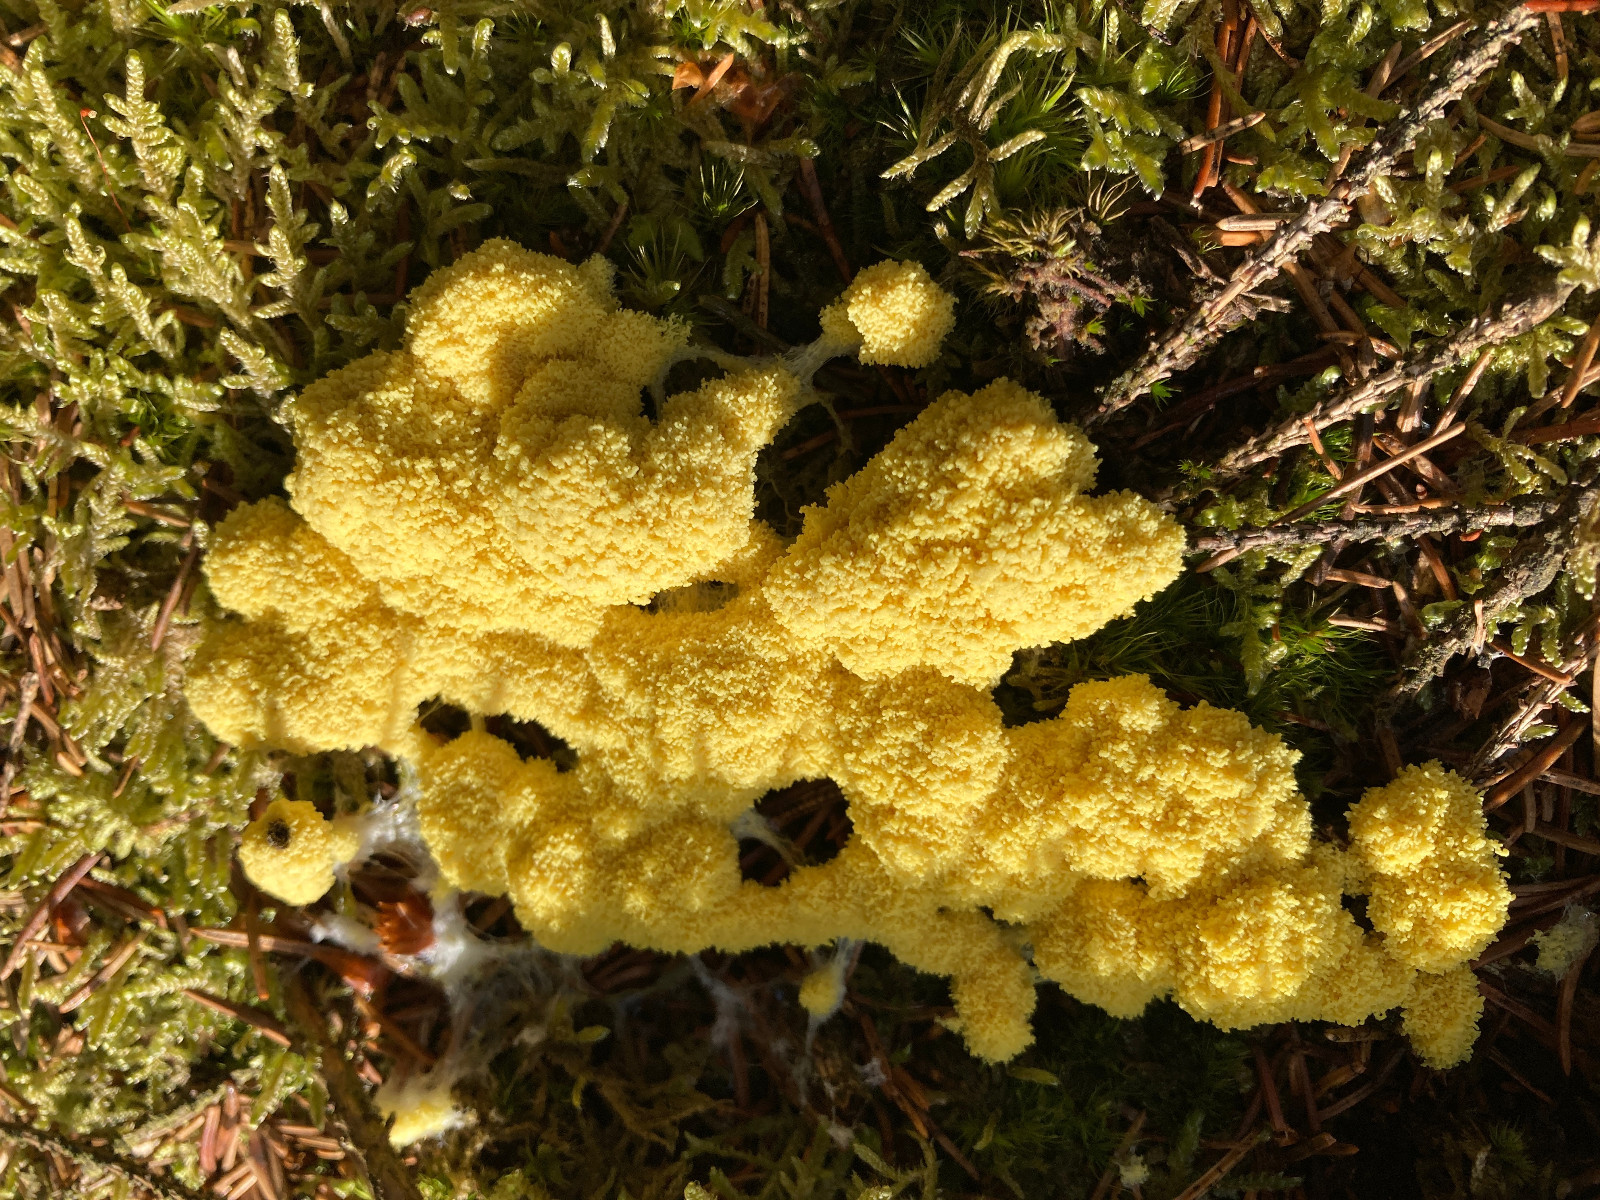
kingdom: Protozoa
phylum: Mycetozoa
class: Myxomycetes
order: Physarales
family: Physaraceae
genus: Fuligo
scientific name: Fuligo septica
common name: gul troldsmør
